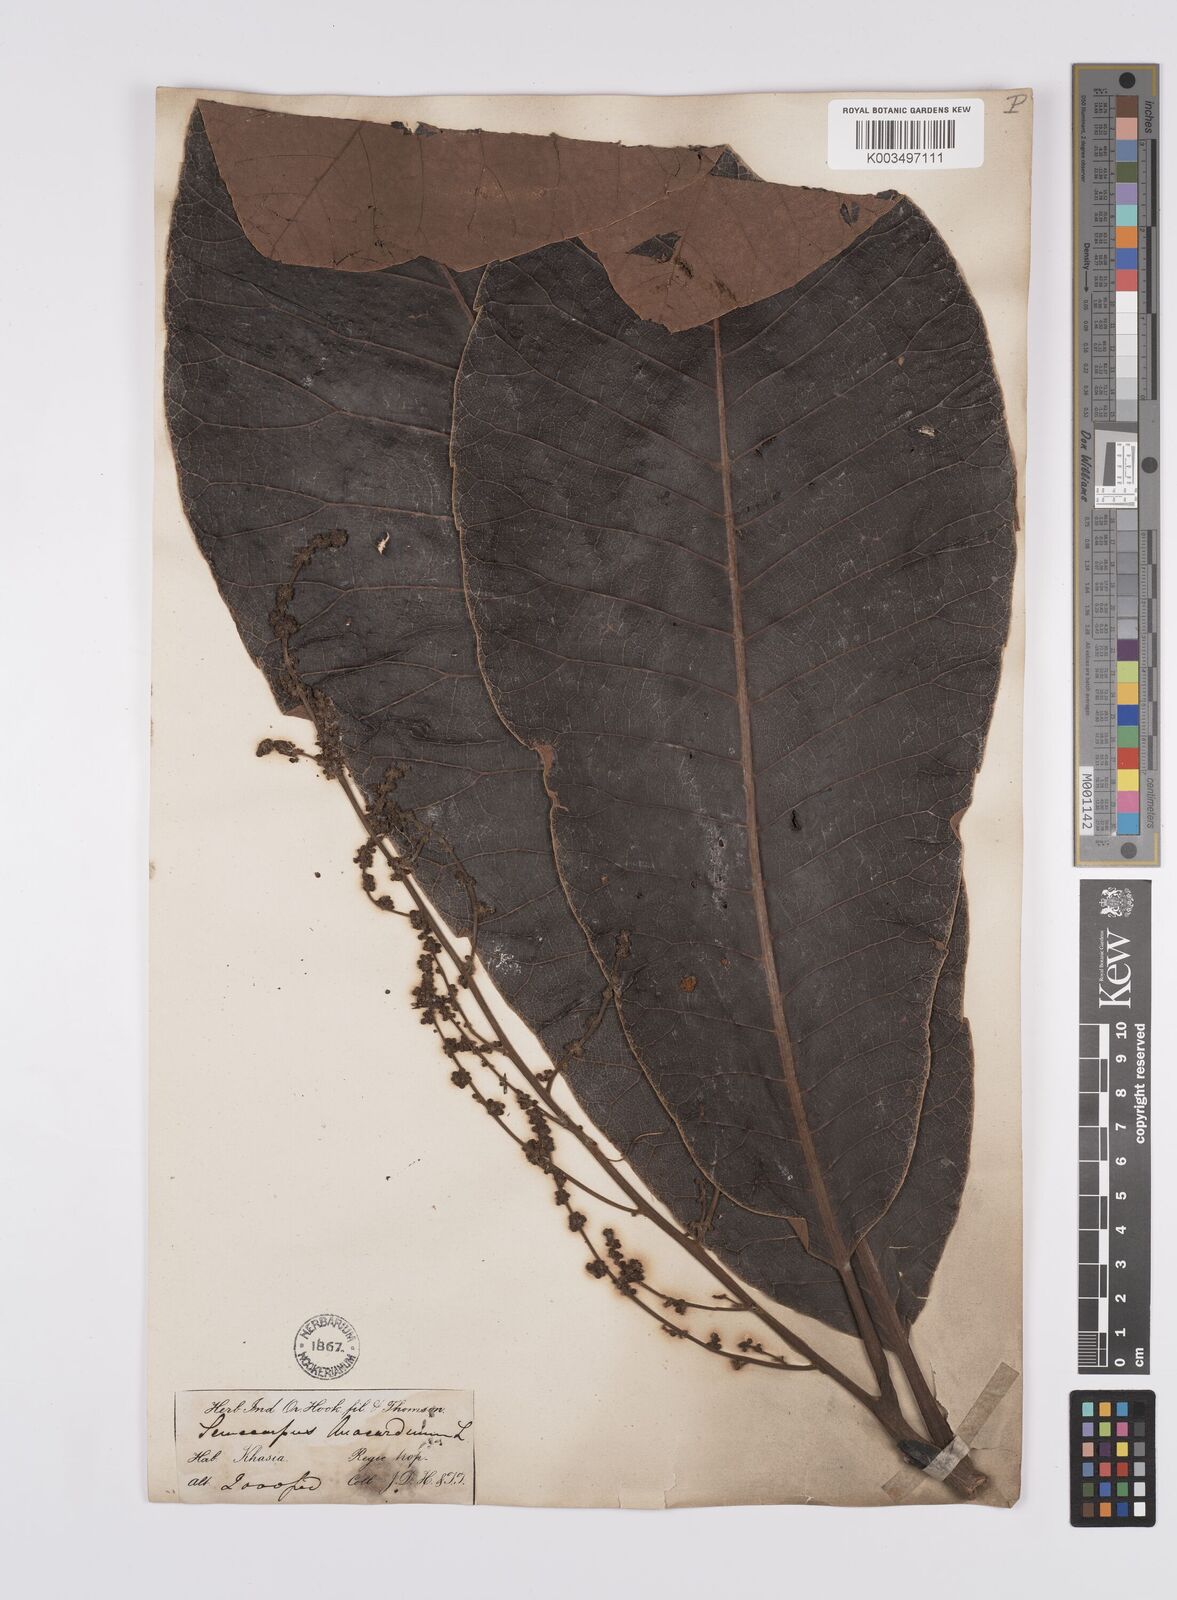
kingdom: Plantae
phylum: Tracheophyta
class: Magnoliopsida
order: Sapindales
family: Anacardiaceae
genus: Semecarpus
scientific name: Semecarpus anacardium
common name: Marking nut-tree
